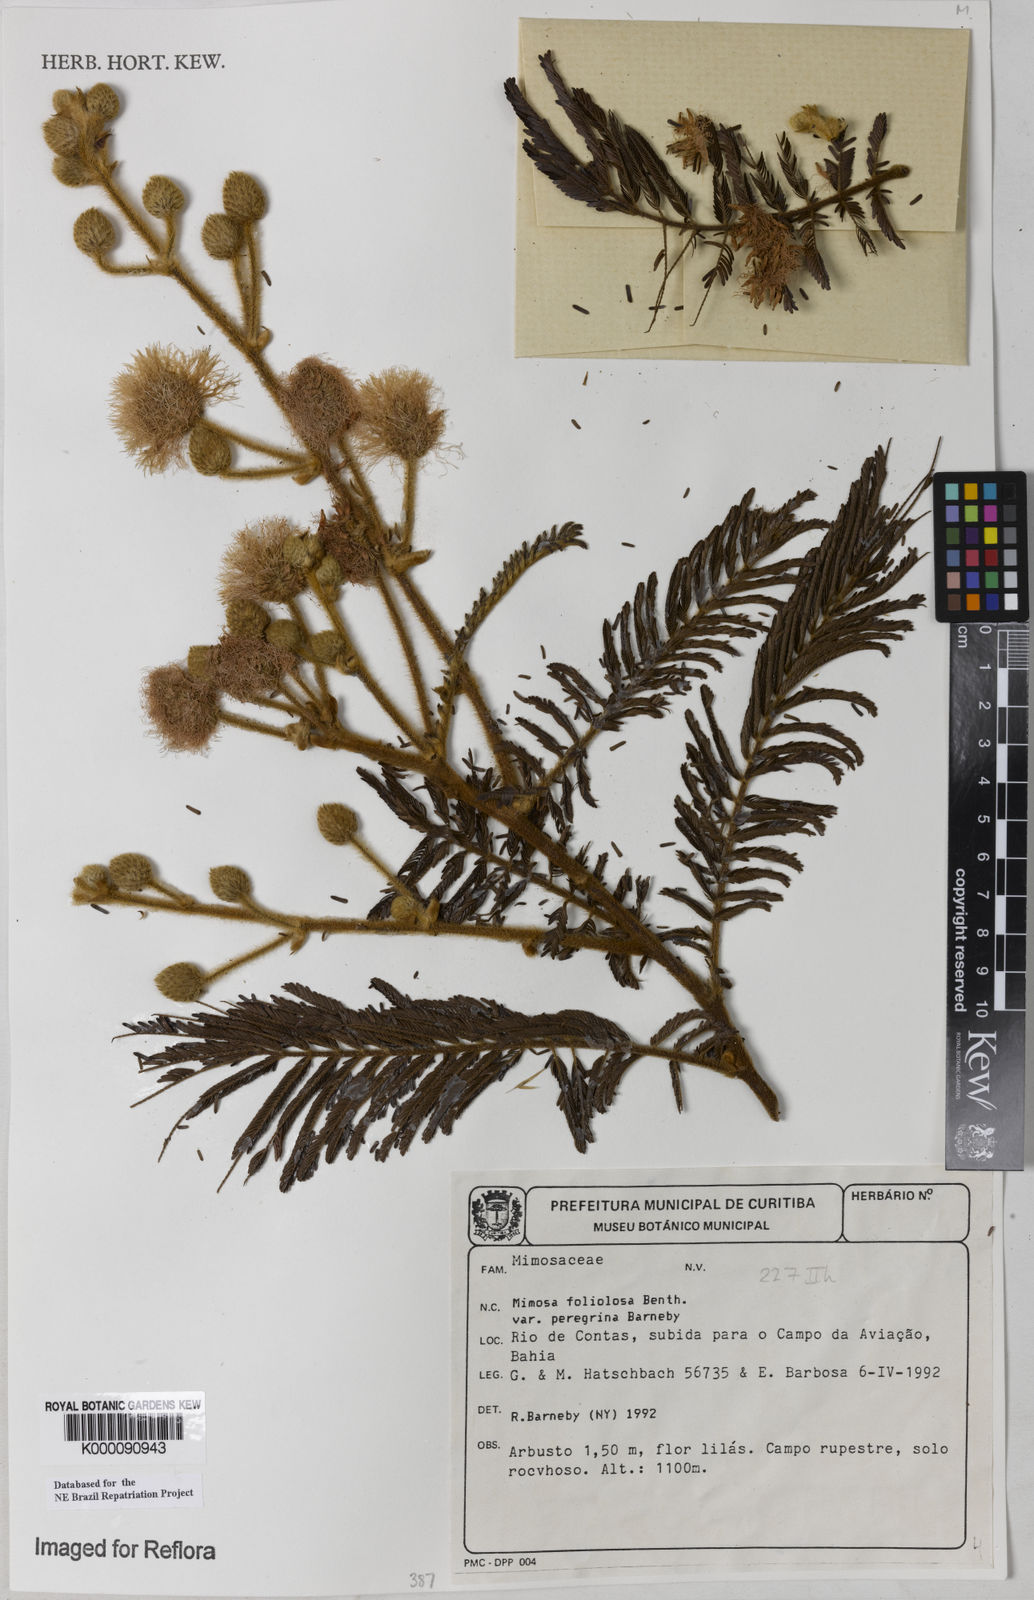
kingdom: Plantae
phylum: Tracheophyta
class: Magnoliopsida
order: Fabales
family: Fabaceae
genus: Mimosa
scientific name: Mimosa foliolosa
